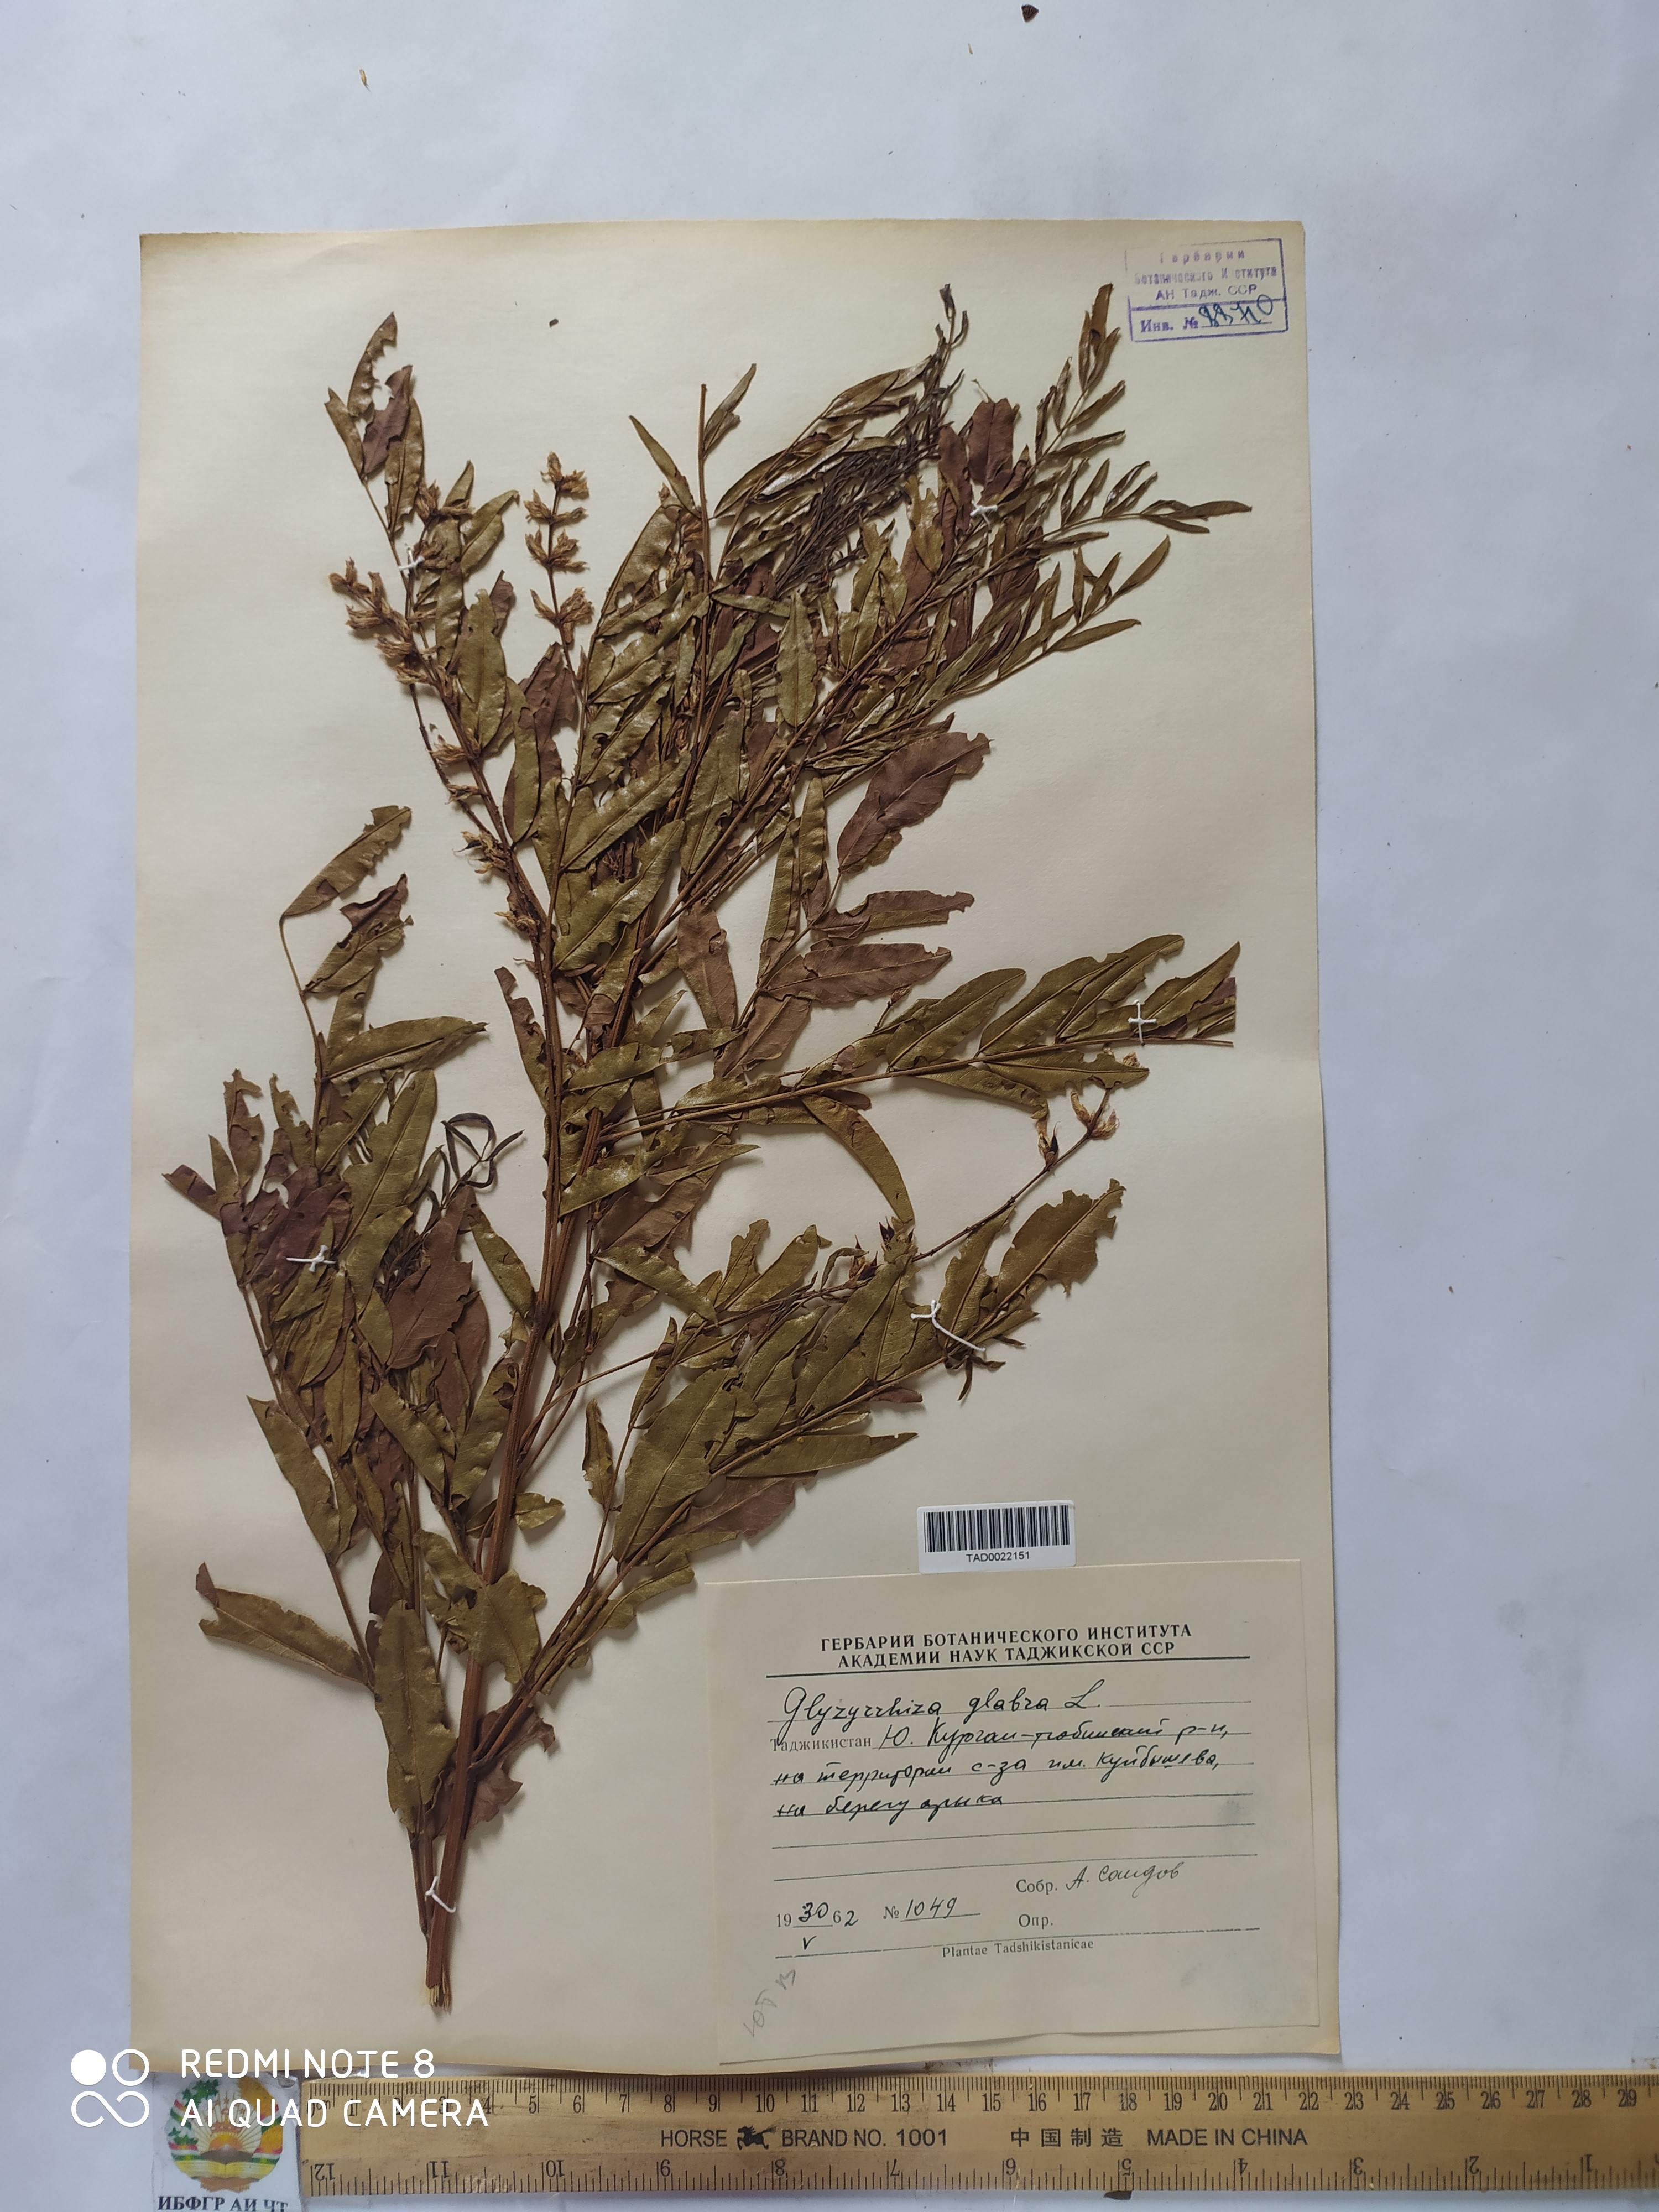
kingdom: Plantae
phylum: Tracheophyta
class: Magnoliopsida
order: Fabales
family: Fabaceae
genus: Glycyrrhiza
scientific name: Glycyrrhiza glabra
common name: Liquorice
